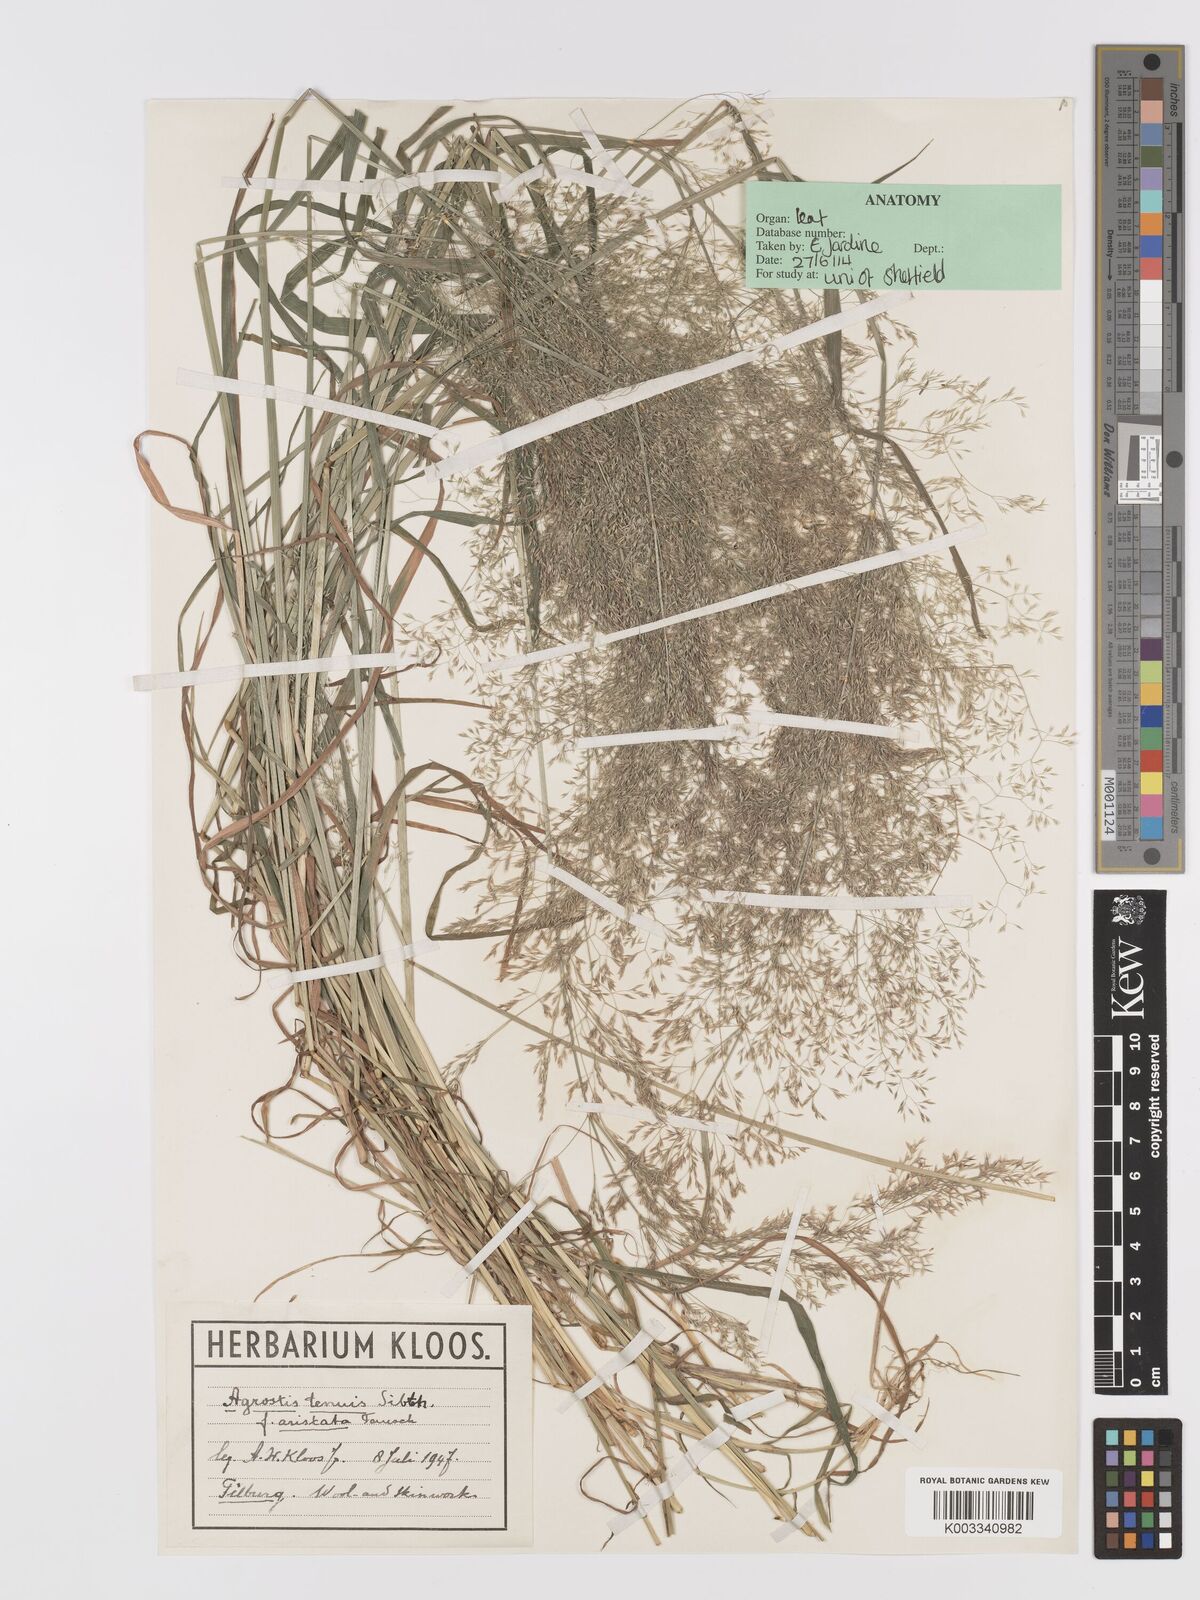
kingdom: Plantae
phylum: Tracheophyta
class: Liliopsida
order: Poales
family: Poaceae
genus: Agrostis
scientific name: Agrostis capillaris
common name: Colonial bentgrass
